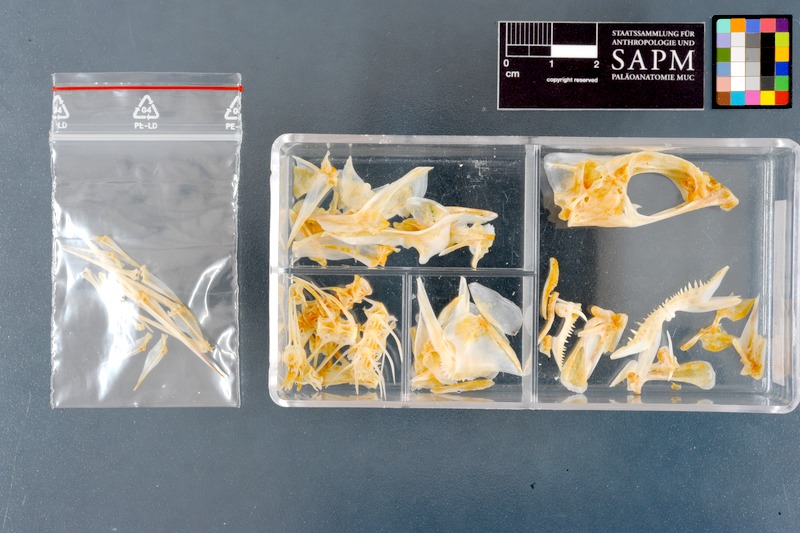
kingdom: Animalia
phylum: Chordata
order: Perciformes
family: Lutjanidae
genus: Lutjanus
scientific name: Lutjanus fulviflamma
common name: Blackspot snapper
